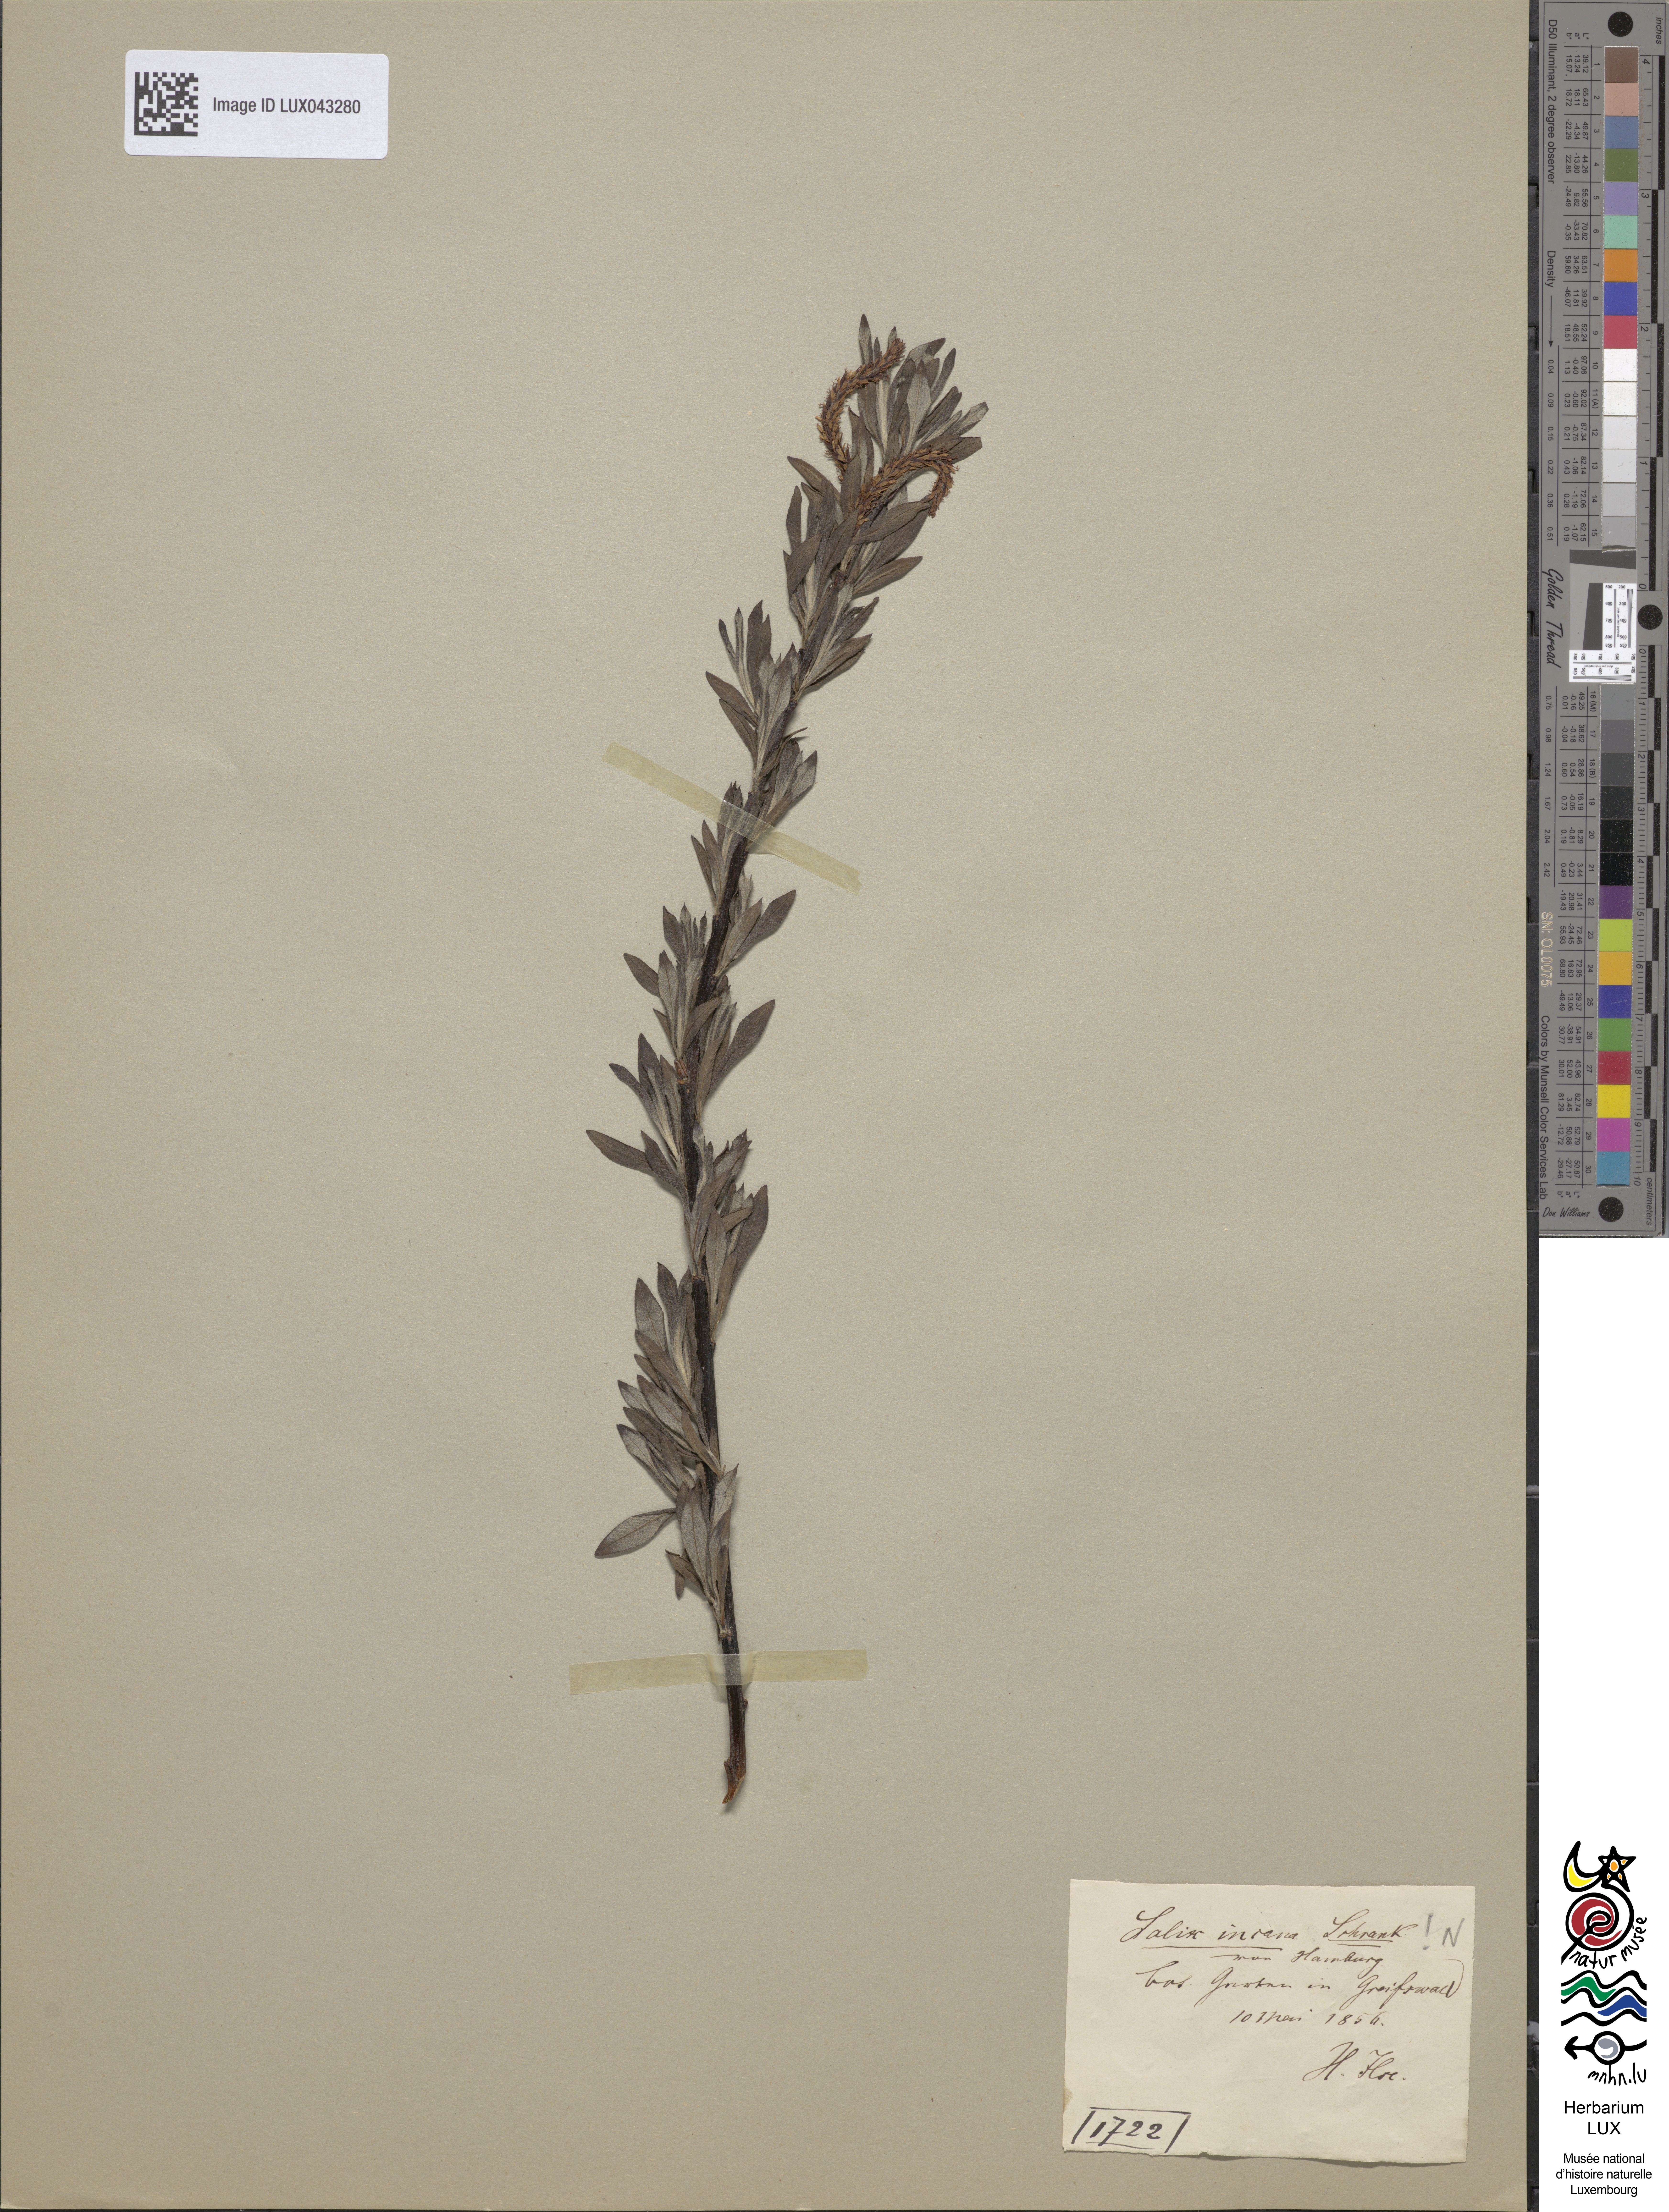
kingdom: Plantae
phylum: Tracheophyta
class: Magnoliopsida
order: Malpighiales
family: Salicaceae
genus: Salix
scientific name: Salix eleagnos
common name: Elaeagnus willow
